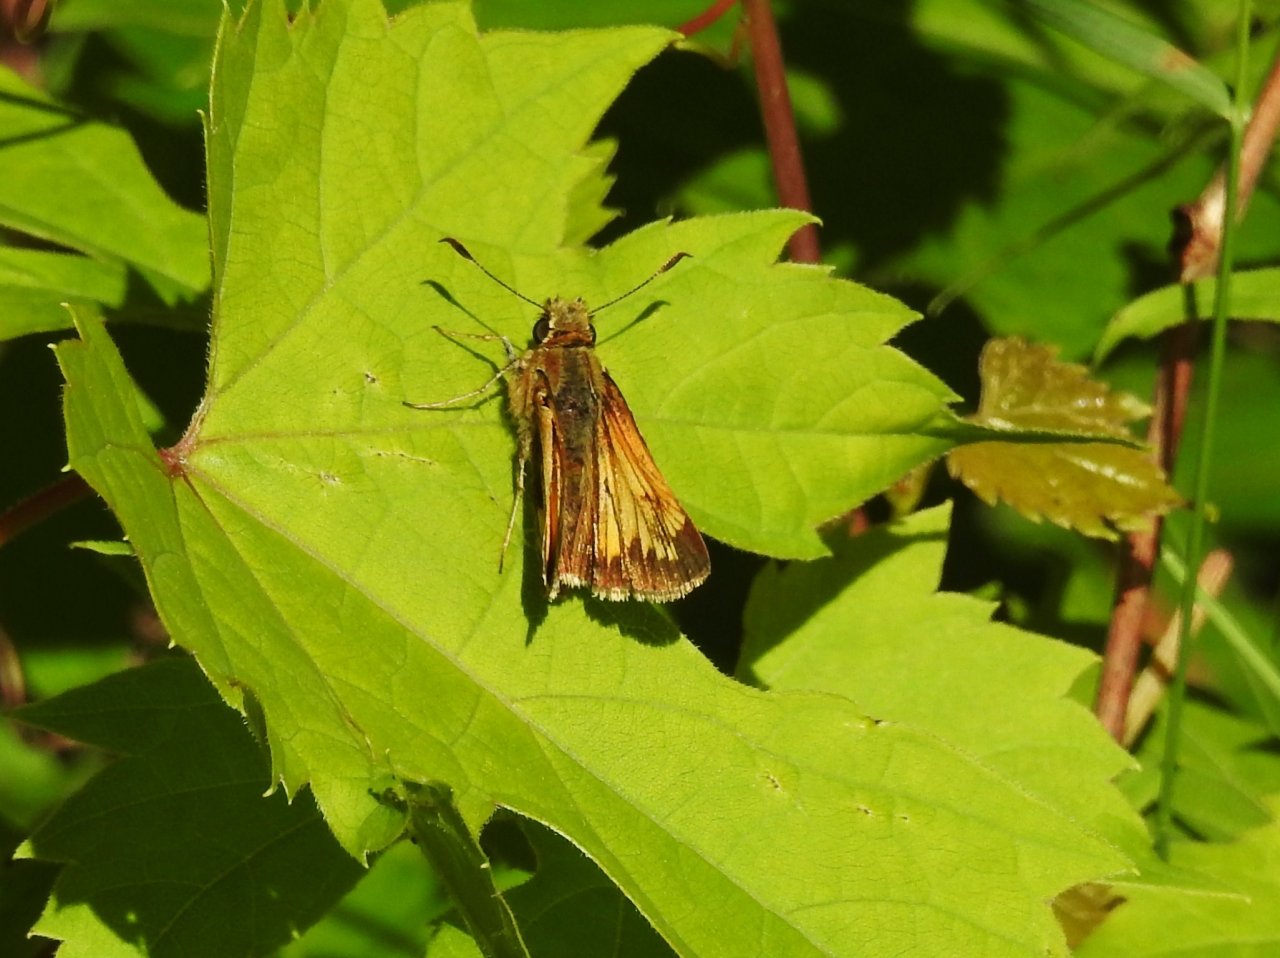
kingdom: Animalia
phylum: Arthropoda
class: Insecta
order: Lepidoptera
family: Hesperiidae
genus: Lon
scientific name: Lon hobomok
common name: Hobomok Skipper
